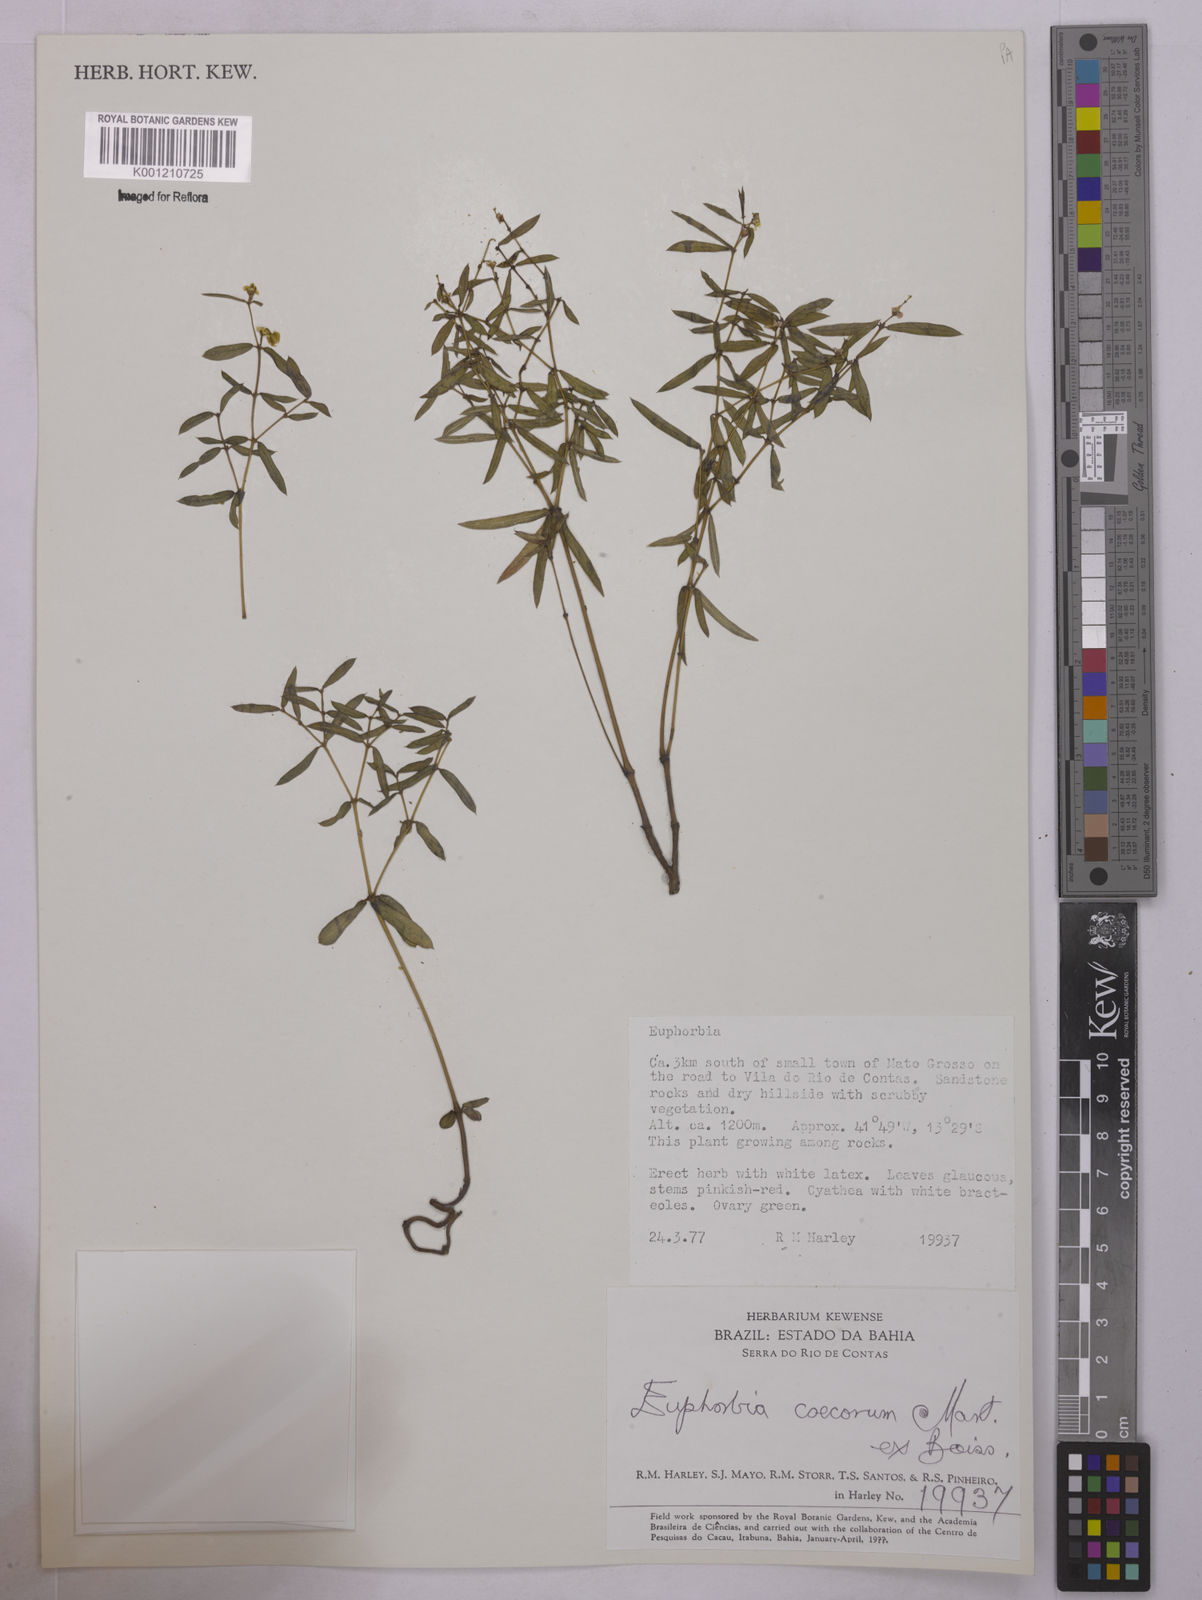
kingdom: Plantae
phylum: Tracheophyta
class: Magnoliopsida
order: Malpighiales
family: Euphorbiaceae
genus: Euphorbia
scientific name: Euphorbia potentilloides
